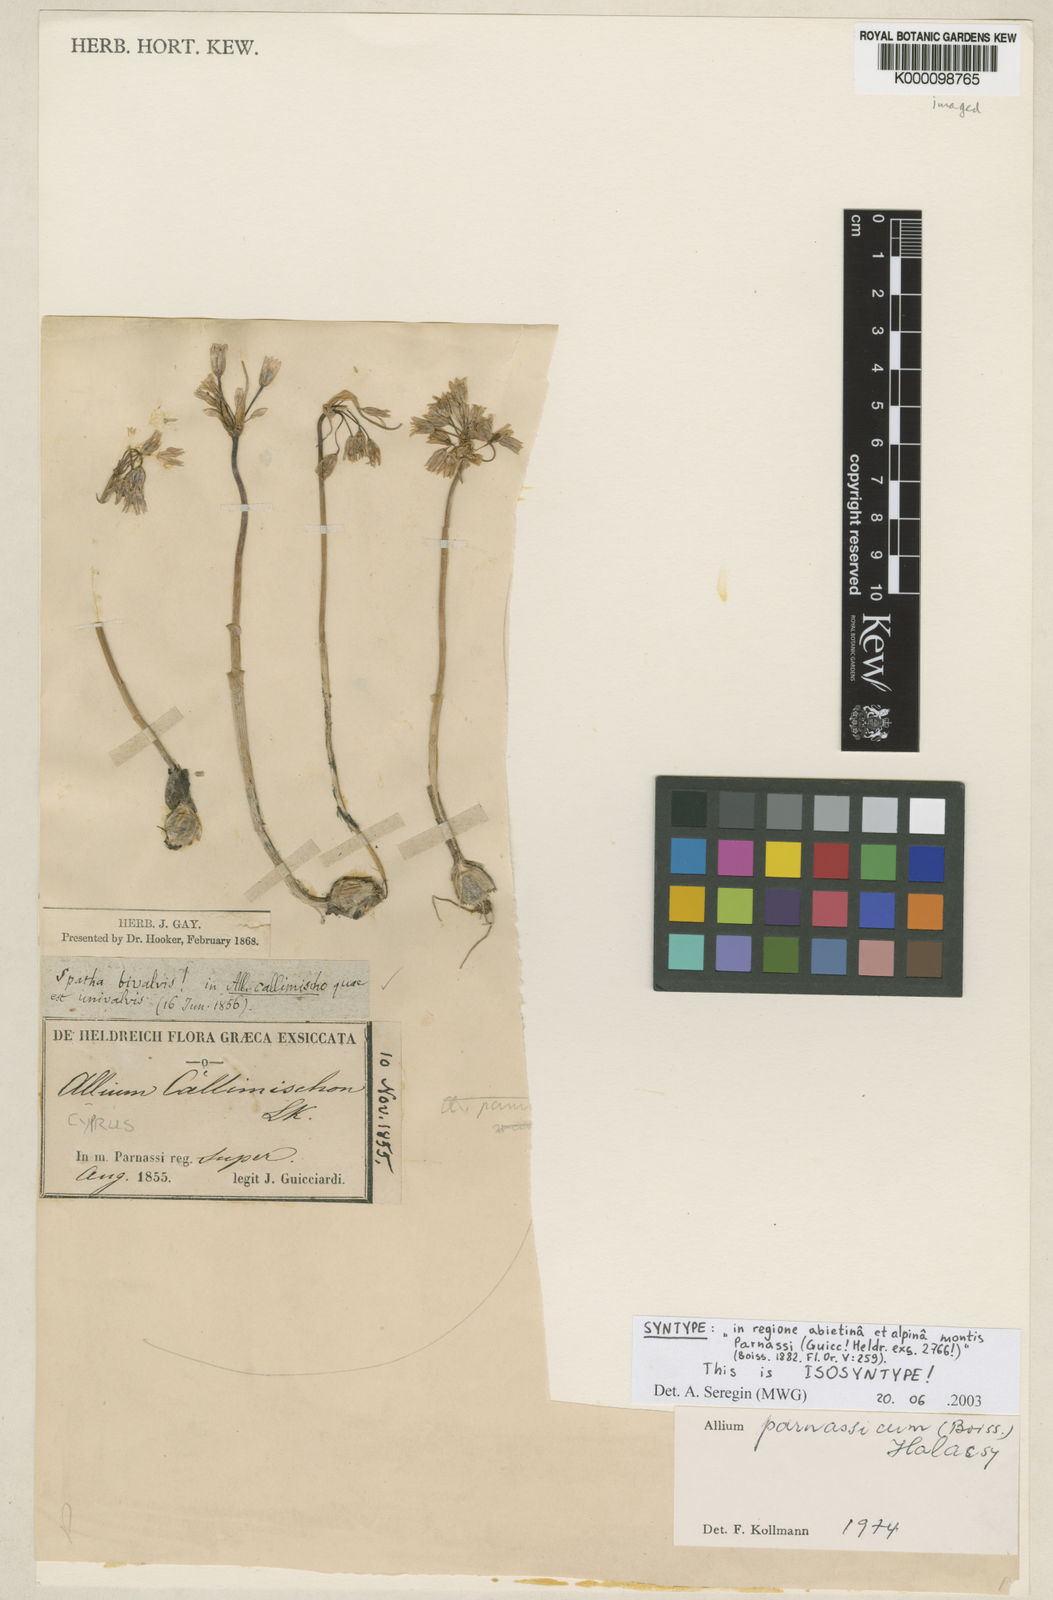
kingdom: Plantae
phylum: Tracheophyta
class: Liliopsida
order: Asparagales
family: Amaryllidaceae
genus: Allium
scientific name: Allium
